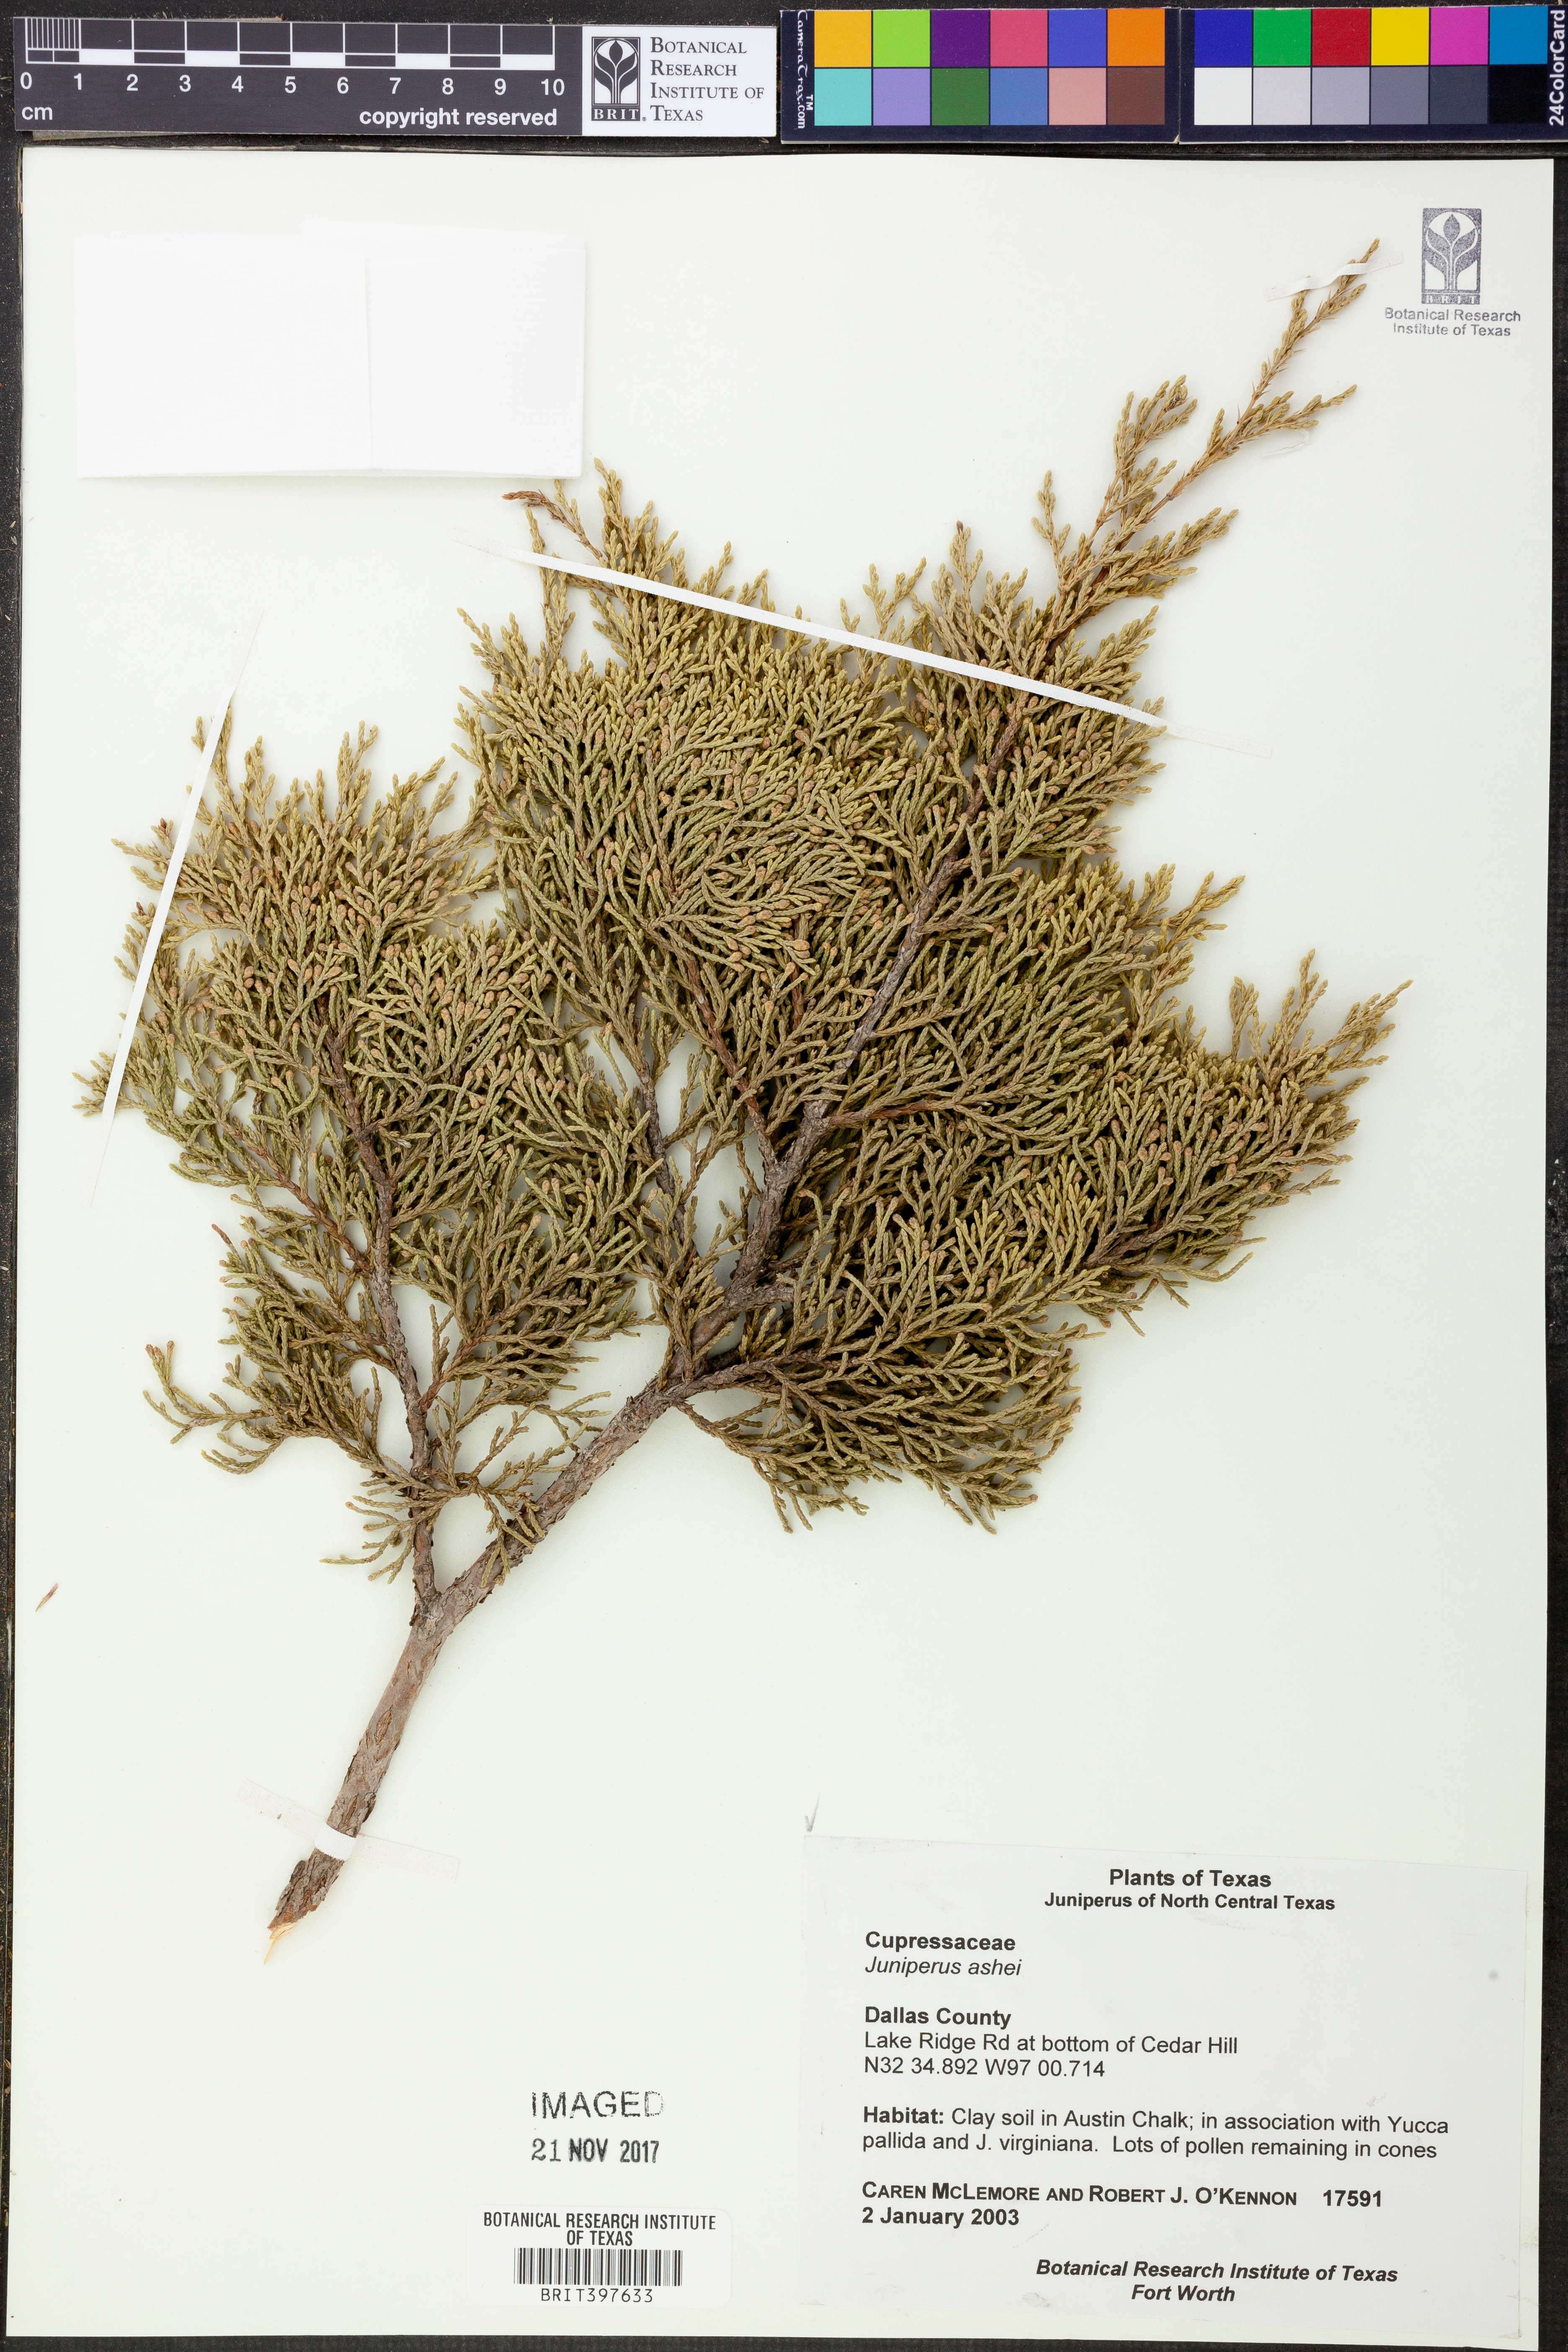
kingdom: Plantae
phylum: Tracheophyta
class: Pinopsida
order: Pinales
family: Cupressaceae
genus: Juniperus
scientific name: Juniperus ashei
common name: Mexican juniper
